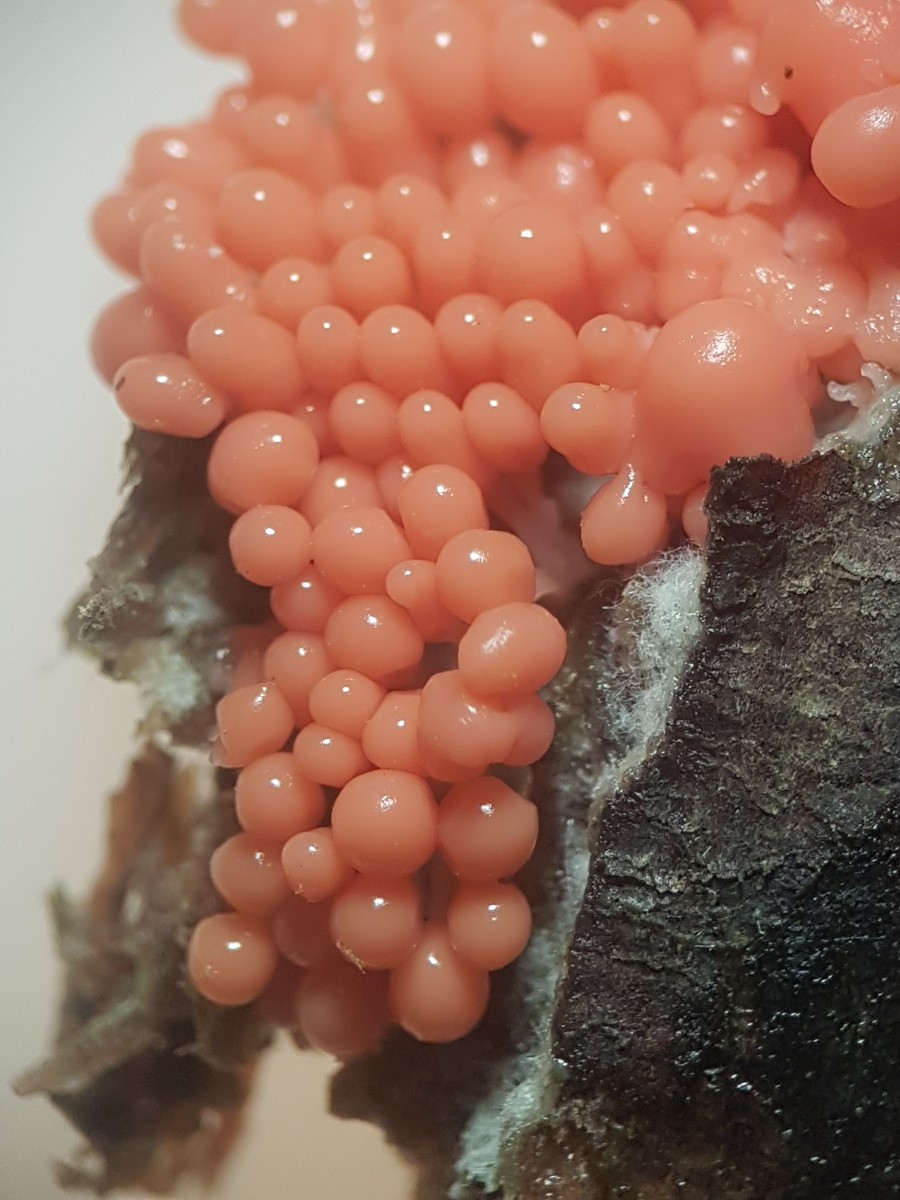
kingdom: Protozoa
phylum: Mycetozoa
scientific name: Mycetozoa
